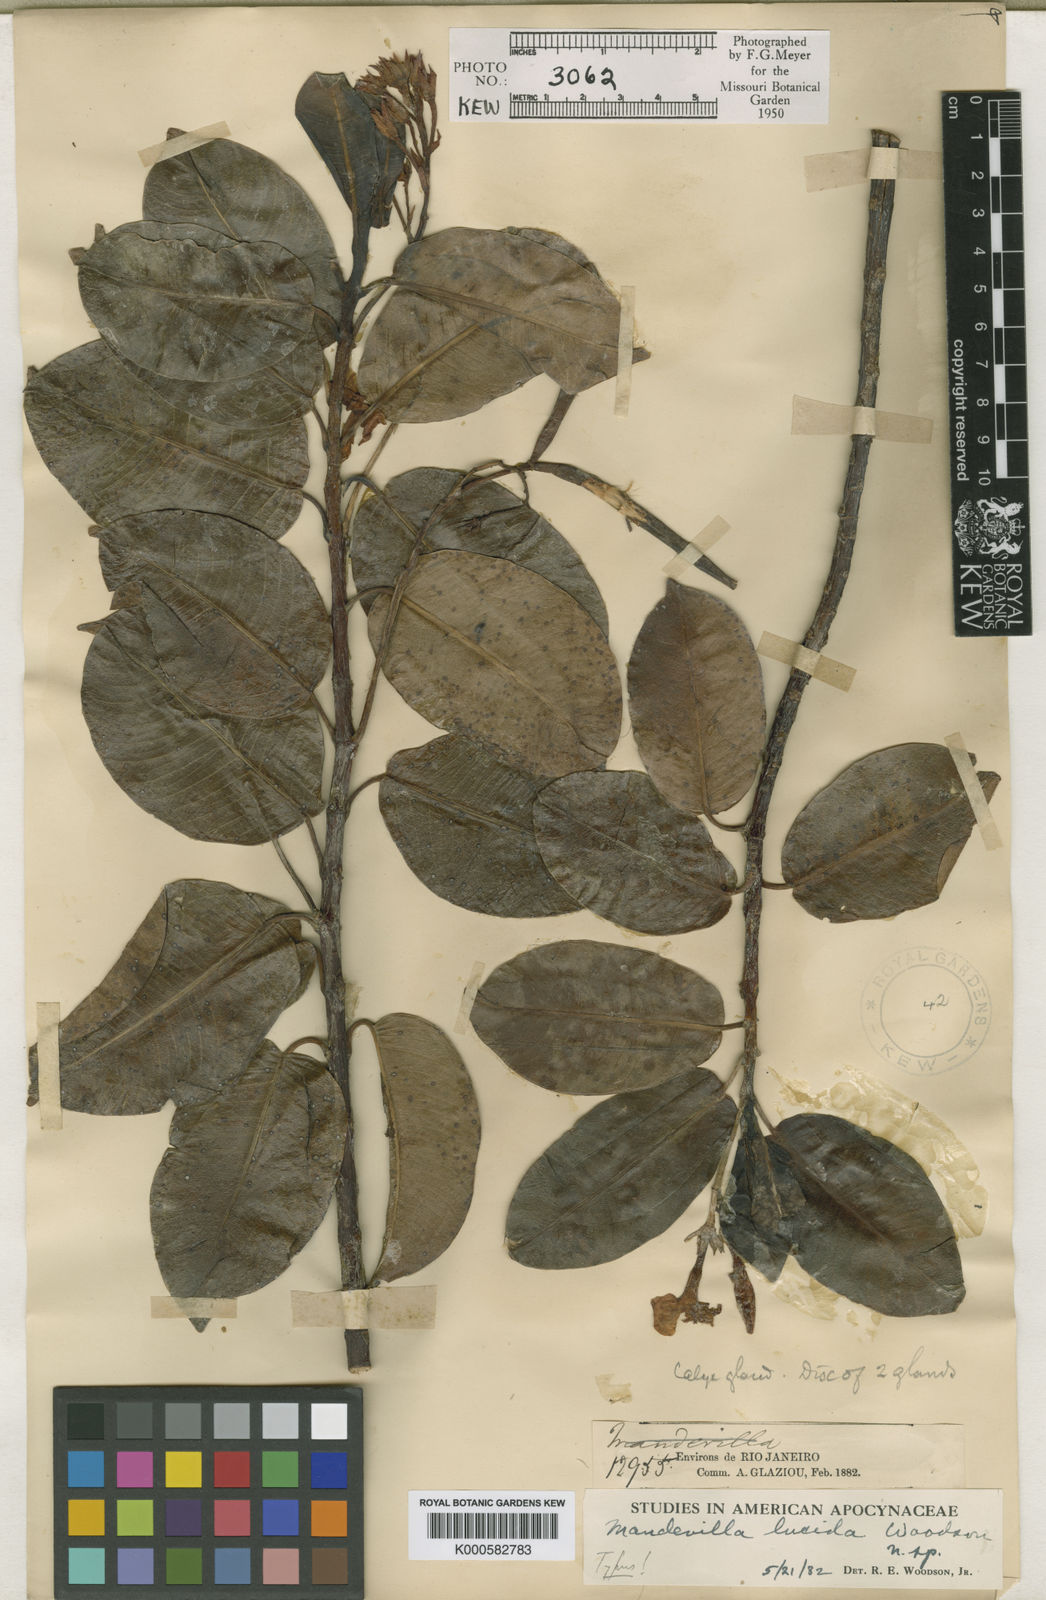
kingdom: Plantae
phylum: Tracheophyta
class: Magnoliopsida
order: Gentianales
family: Apocynaceae
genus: Mandevilla
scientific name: Mandevilla lucida
